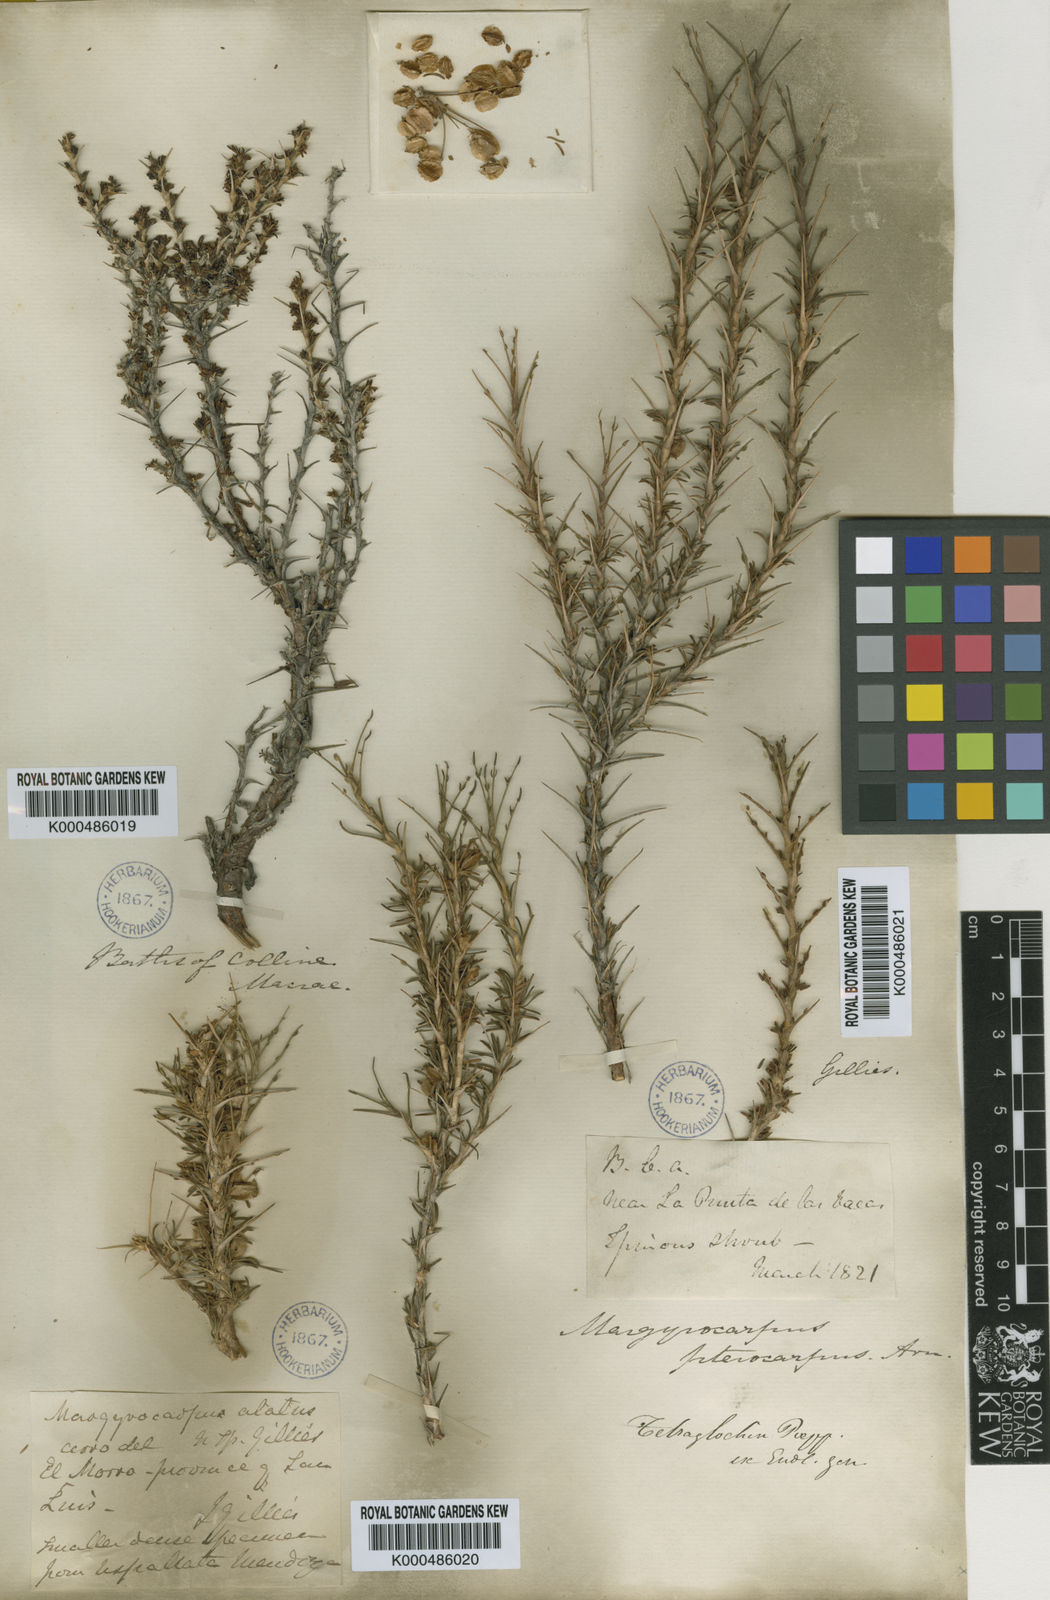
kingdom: Plantae
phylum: Tracheophyta
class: Magnoliopsida
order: Rosales
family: Rosaceae
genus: Margyricarpus
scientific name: Margyricarpus alatus
